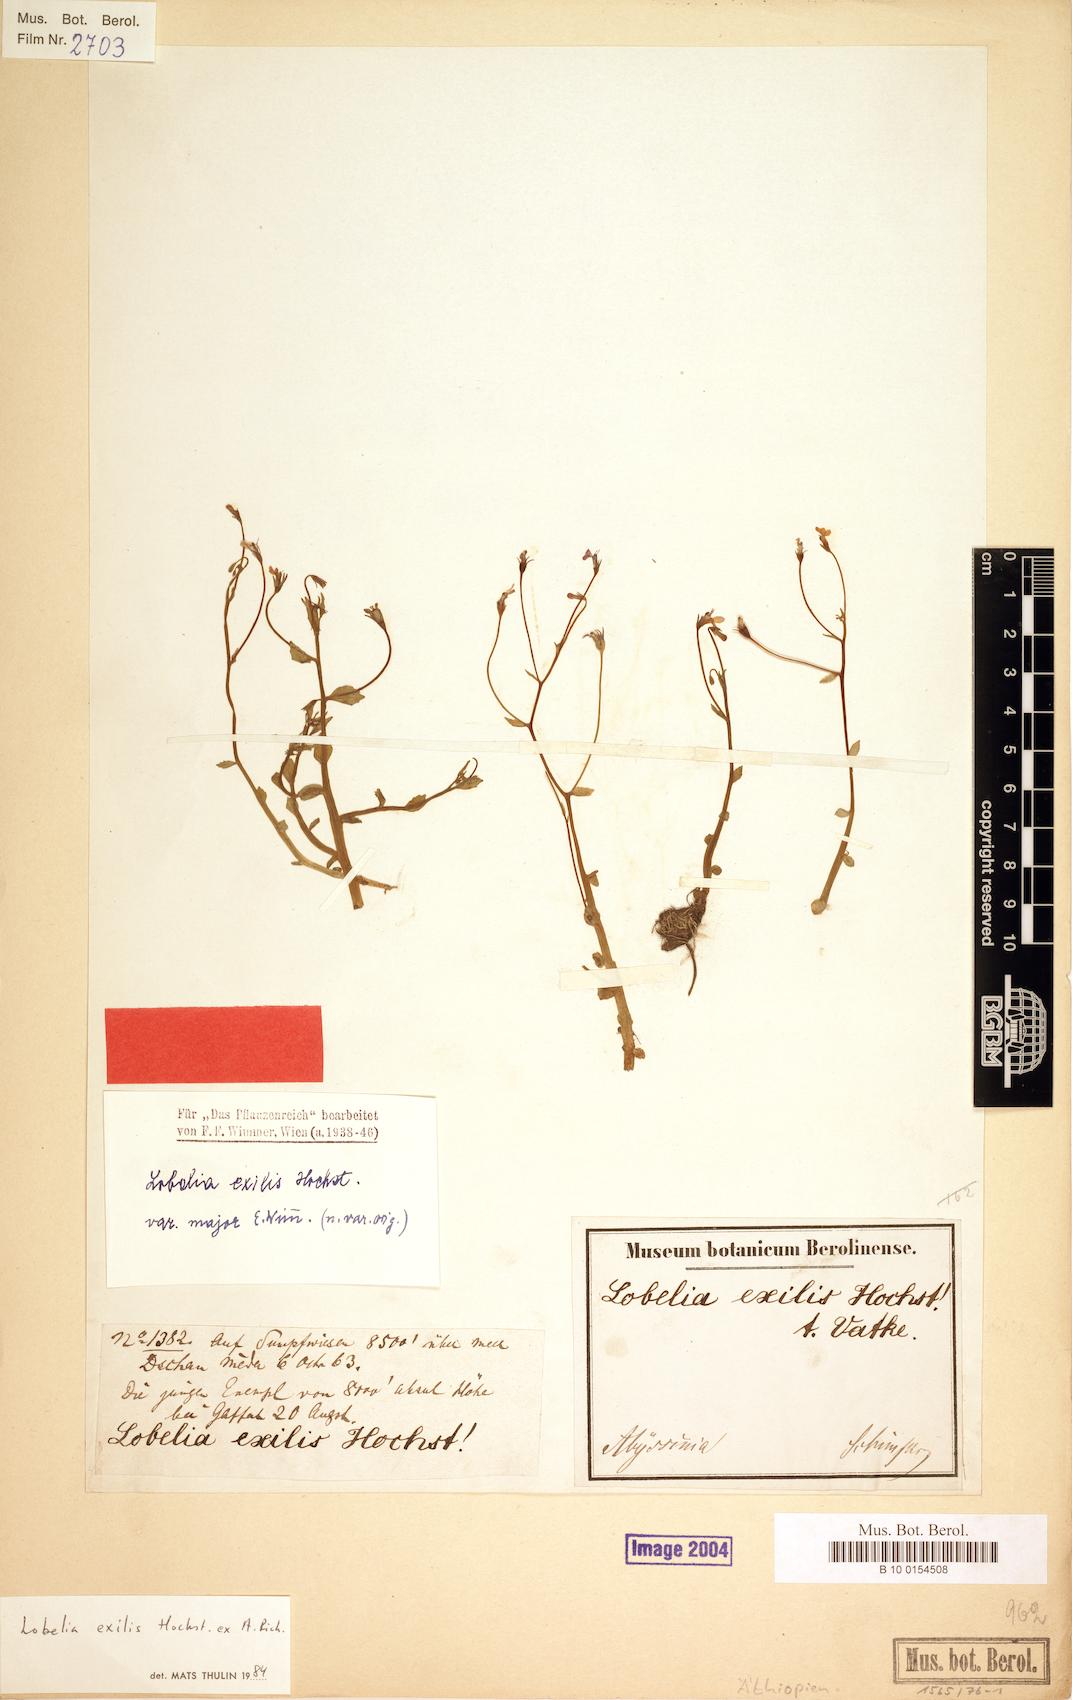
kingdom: Plantae
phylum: Tracheophyta
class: Magnoliopsida
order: Asterales
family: Campanulaceae
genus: Lobelia
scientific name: Lobelia exilis
